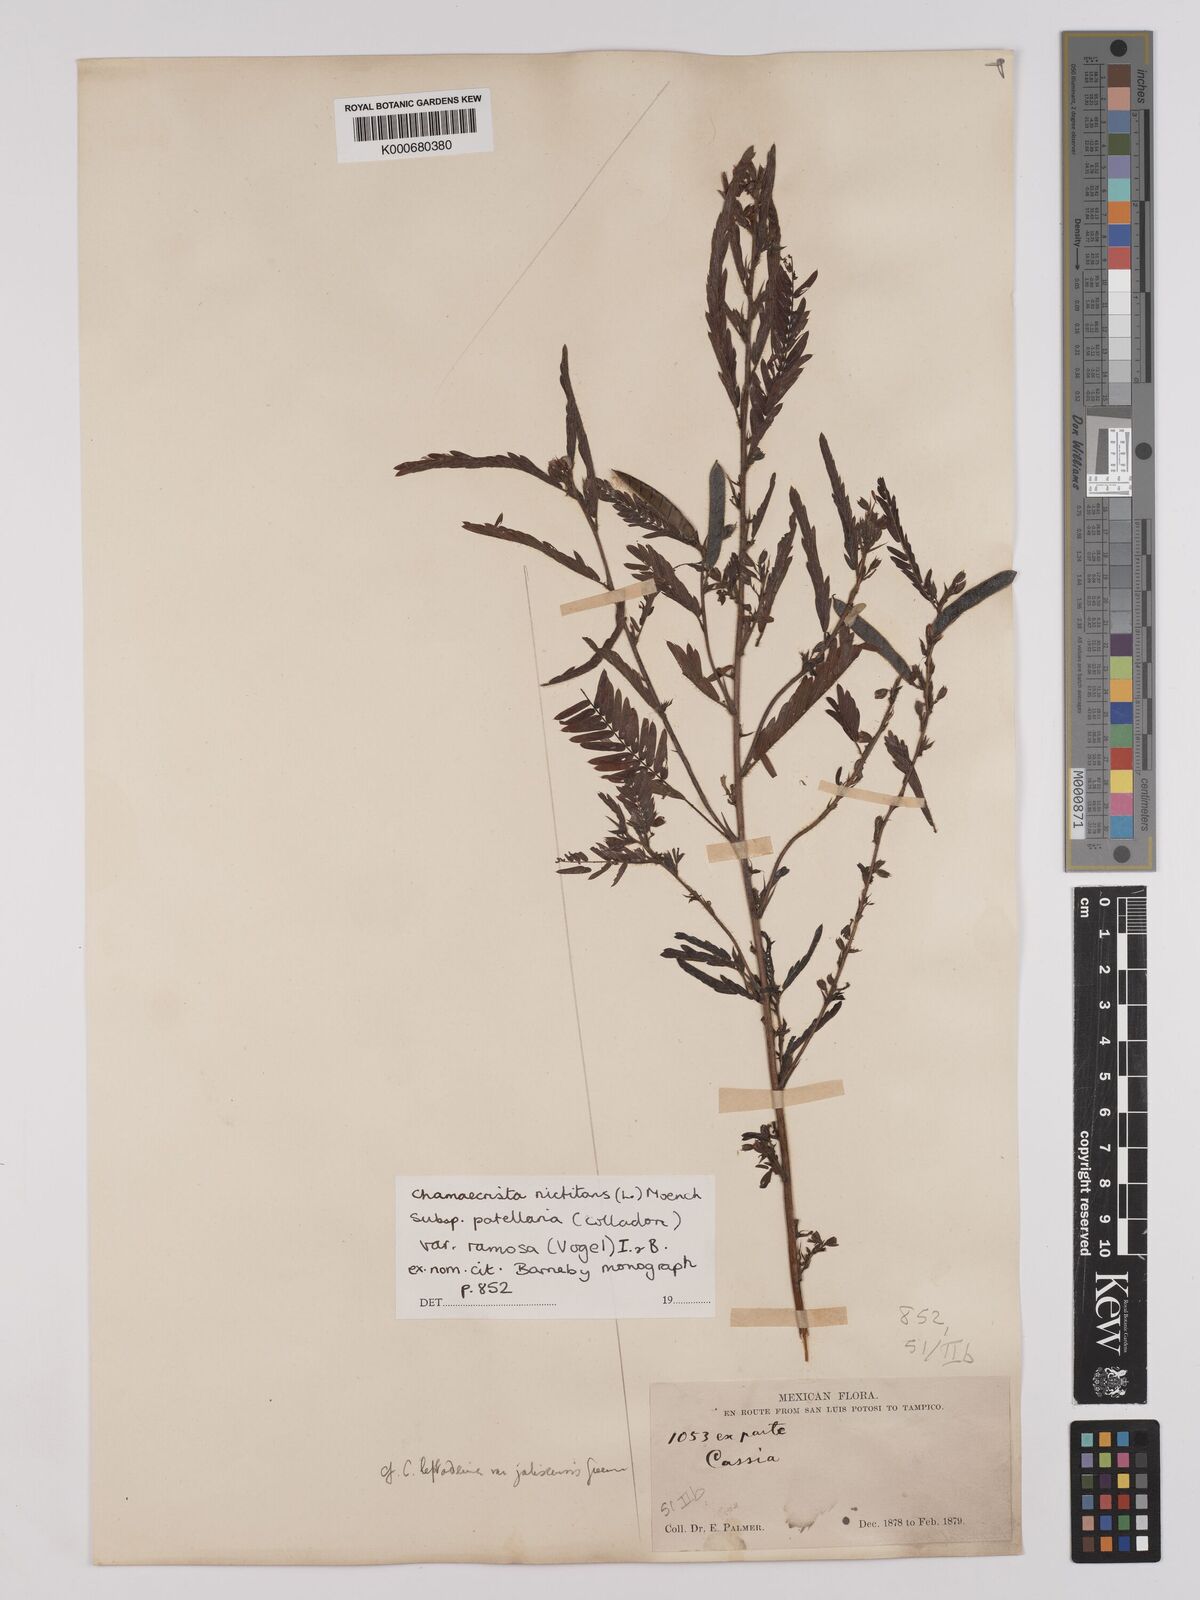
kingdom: Plantae
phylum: Tracheophyta
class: Magnoliopsida
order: Fabales
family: Fabaceae
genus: Chamaecrista
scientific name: Chamaecrista nictitans
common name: Sensitive cassia
